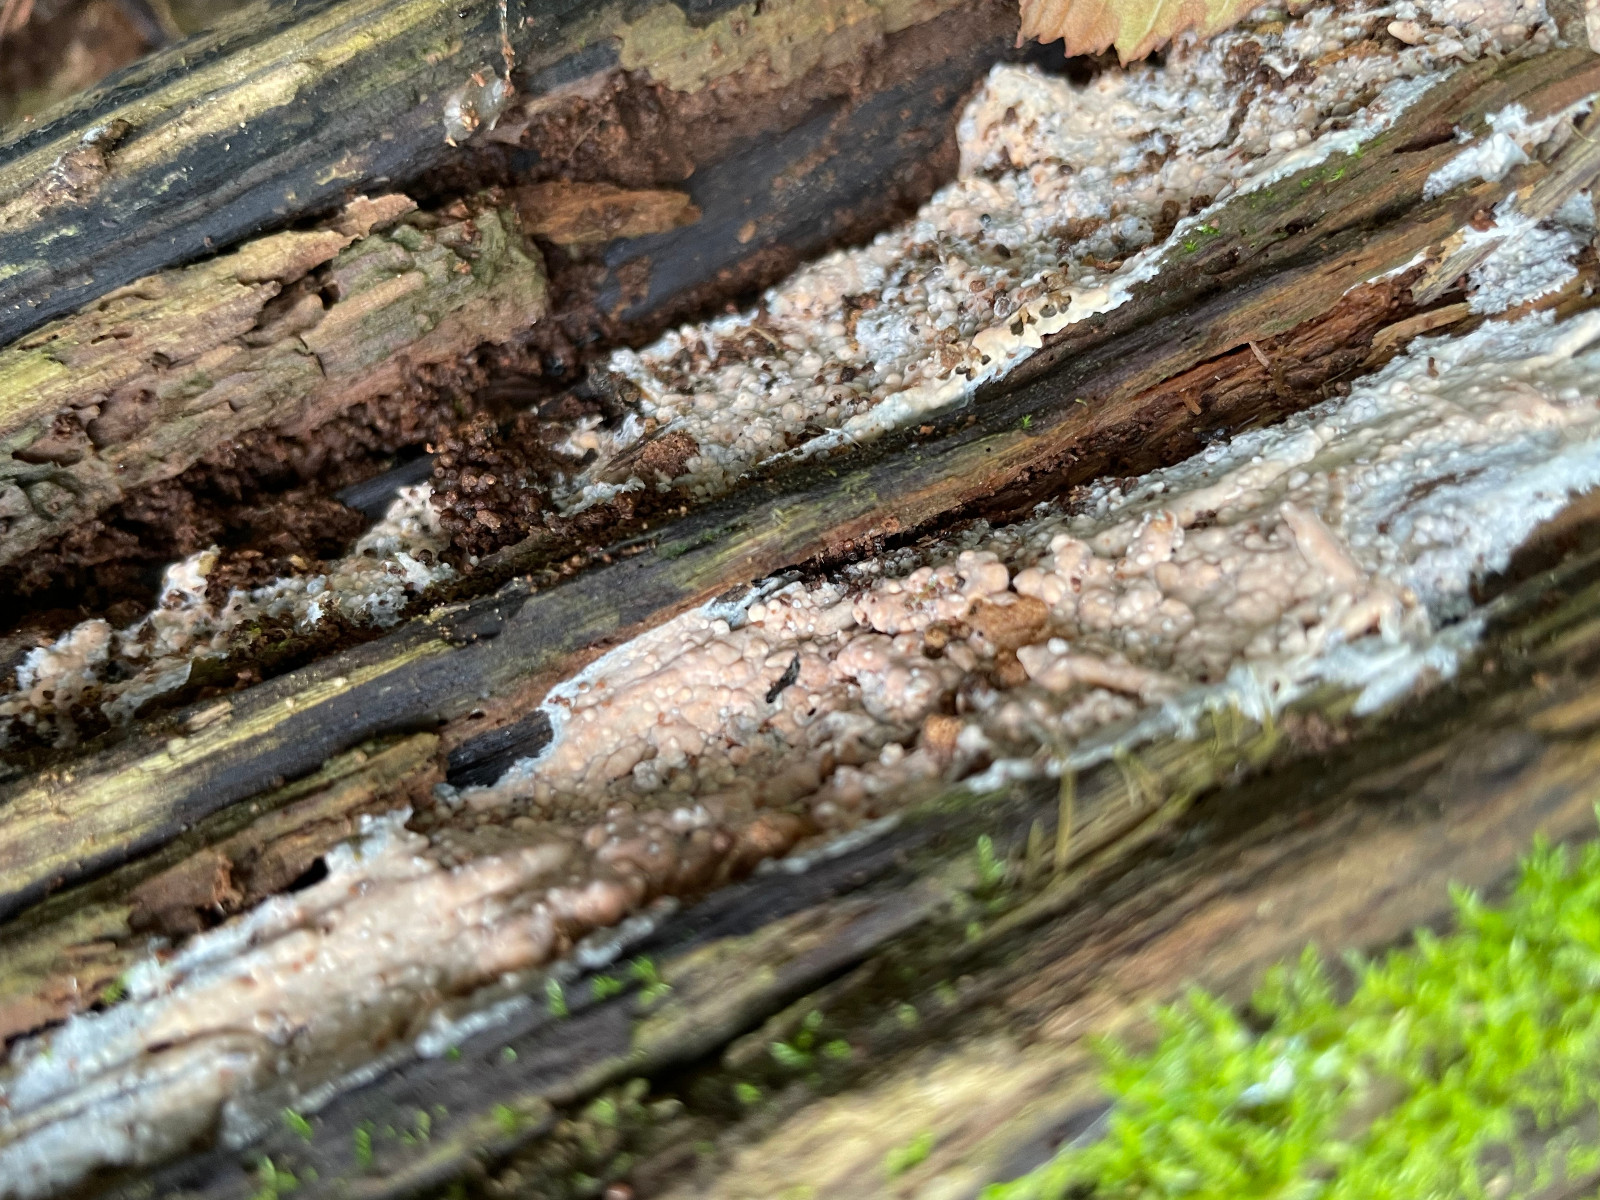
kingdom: Fungi
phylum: Basidiomycota
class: Agaricomycetes
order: Corticiales
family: Corticiaceae
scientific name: Corticiaceae
